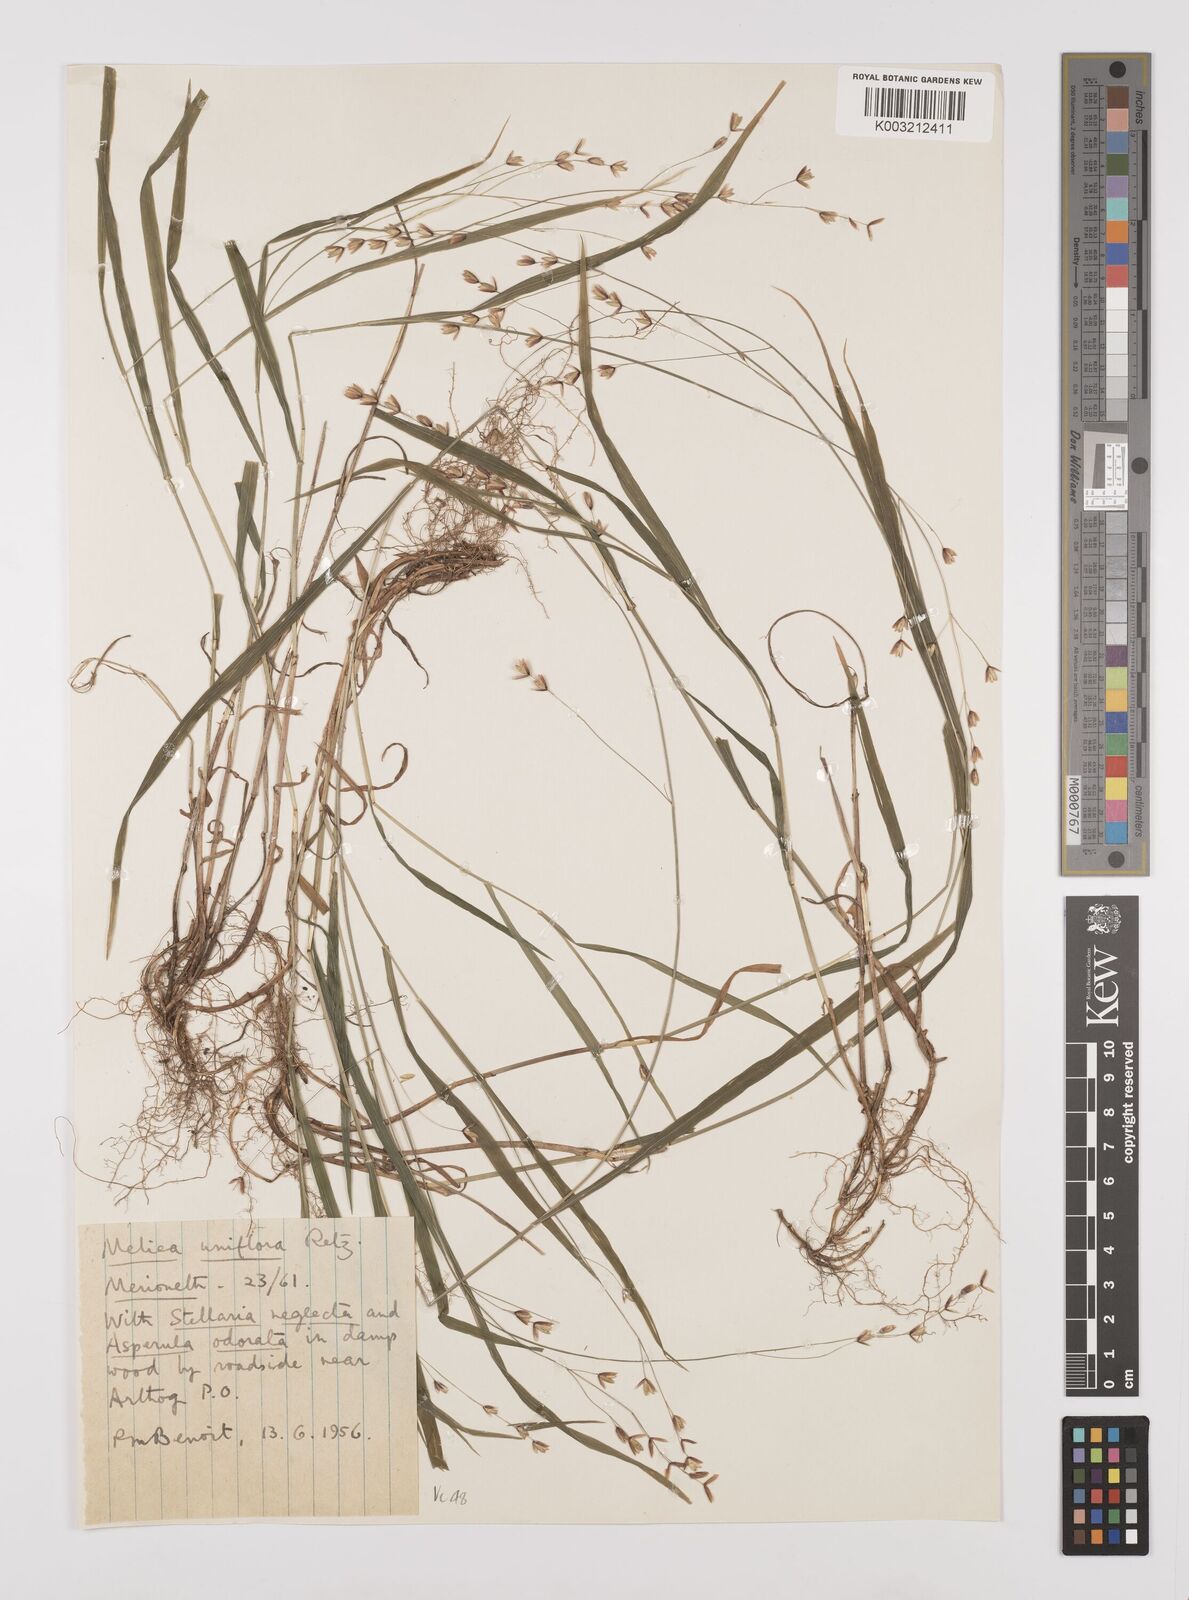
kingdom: Plantae
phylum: Tracheophyta
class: Liliopsida
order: Poales
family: Poaceae
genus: Melica
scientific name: Melica uniflora
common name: Wood melick
